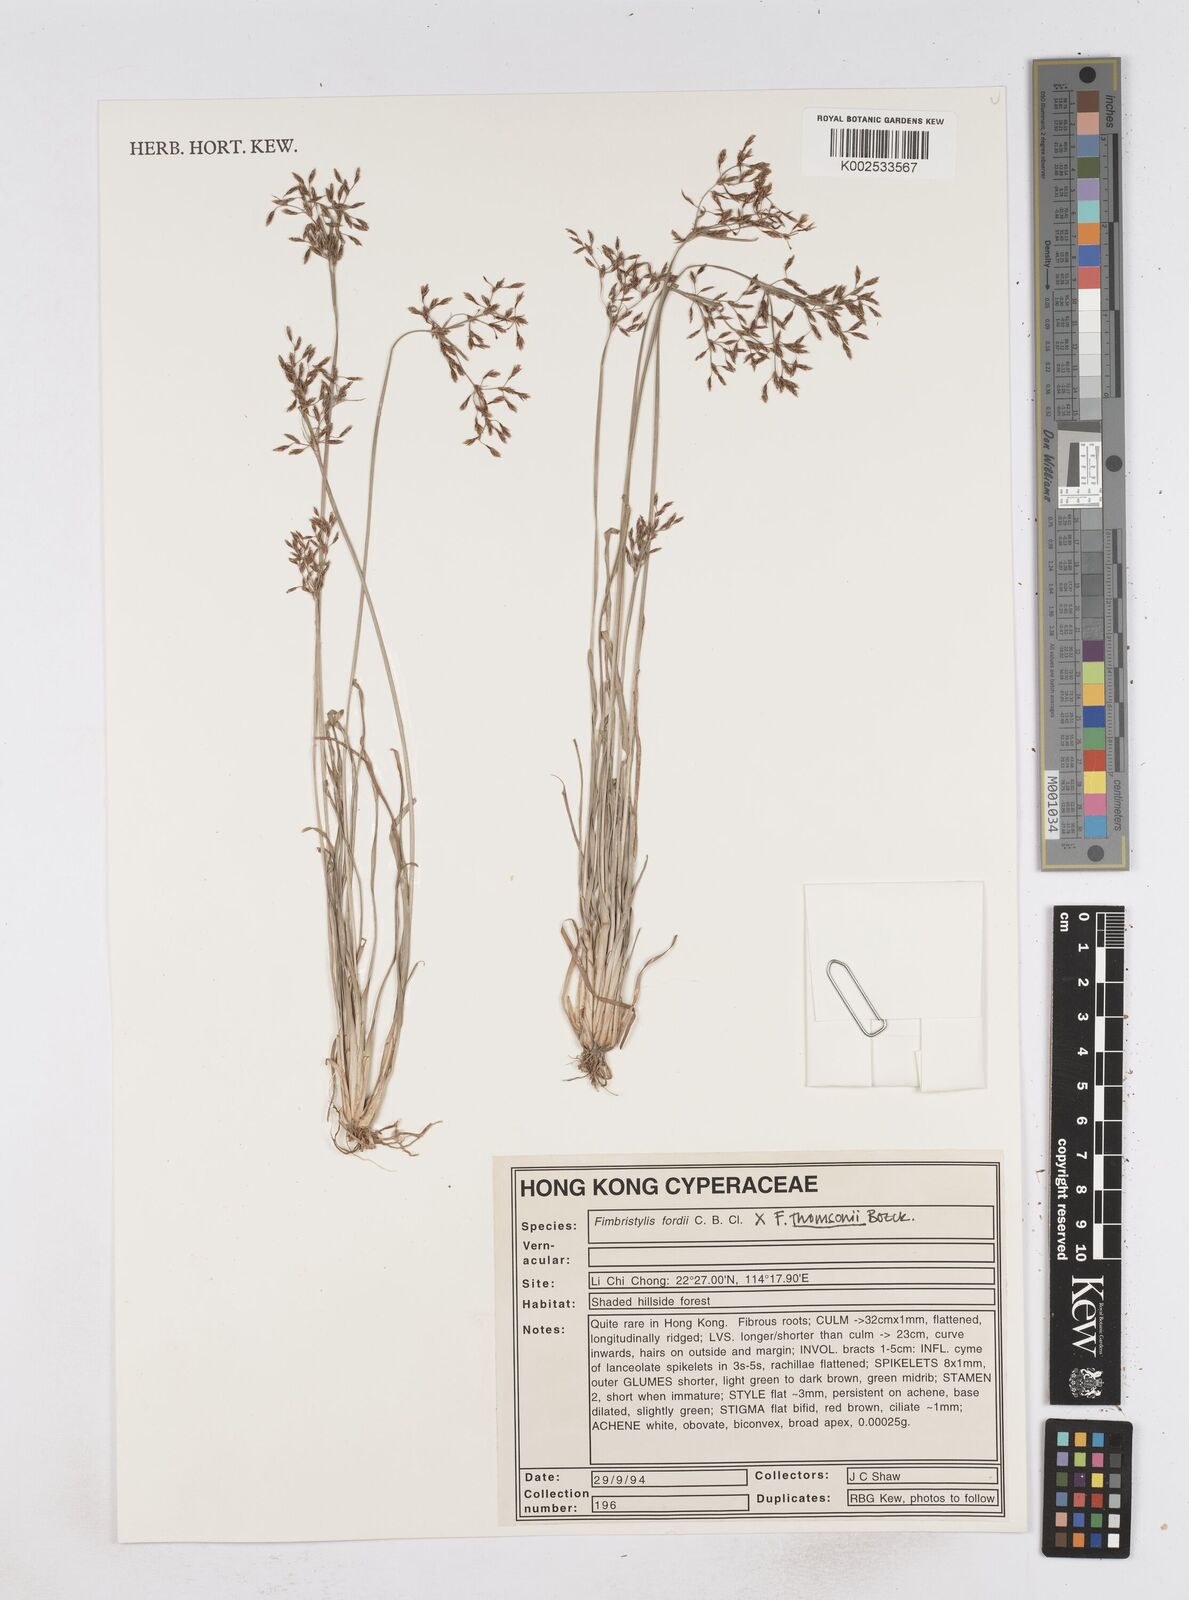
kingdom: Plantae
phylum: Tracheophyta
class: Liliopsida
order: Poales
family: Cyperaceae
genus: Fimbristylis
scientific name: Fimbristylis thomsonii
